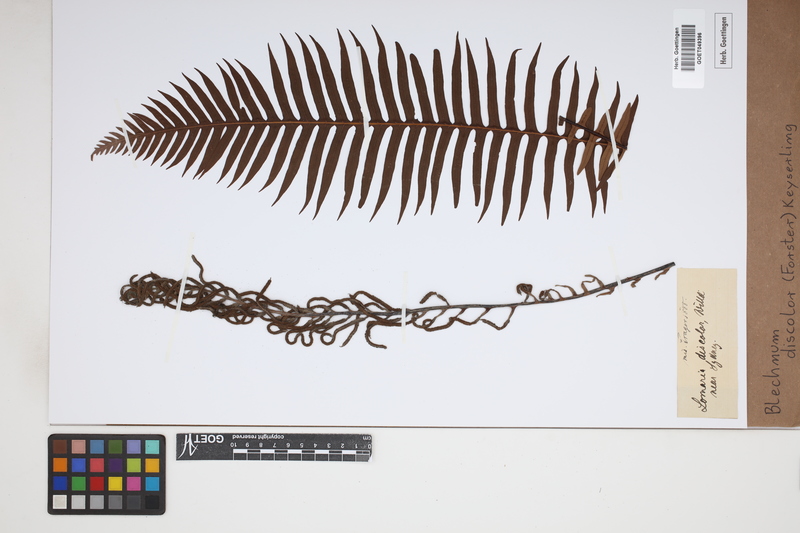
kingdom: Plantae
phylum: Tracheophyta
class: Polypodiopsida
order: Polypodiales
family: Blechnaceae
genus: Lomaria
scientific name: Lomaria discolor
